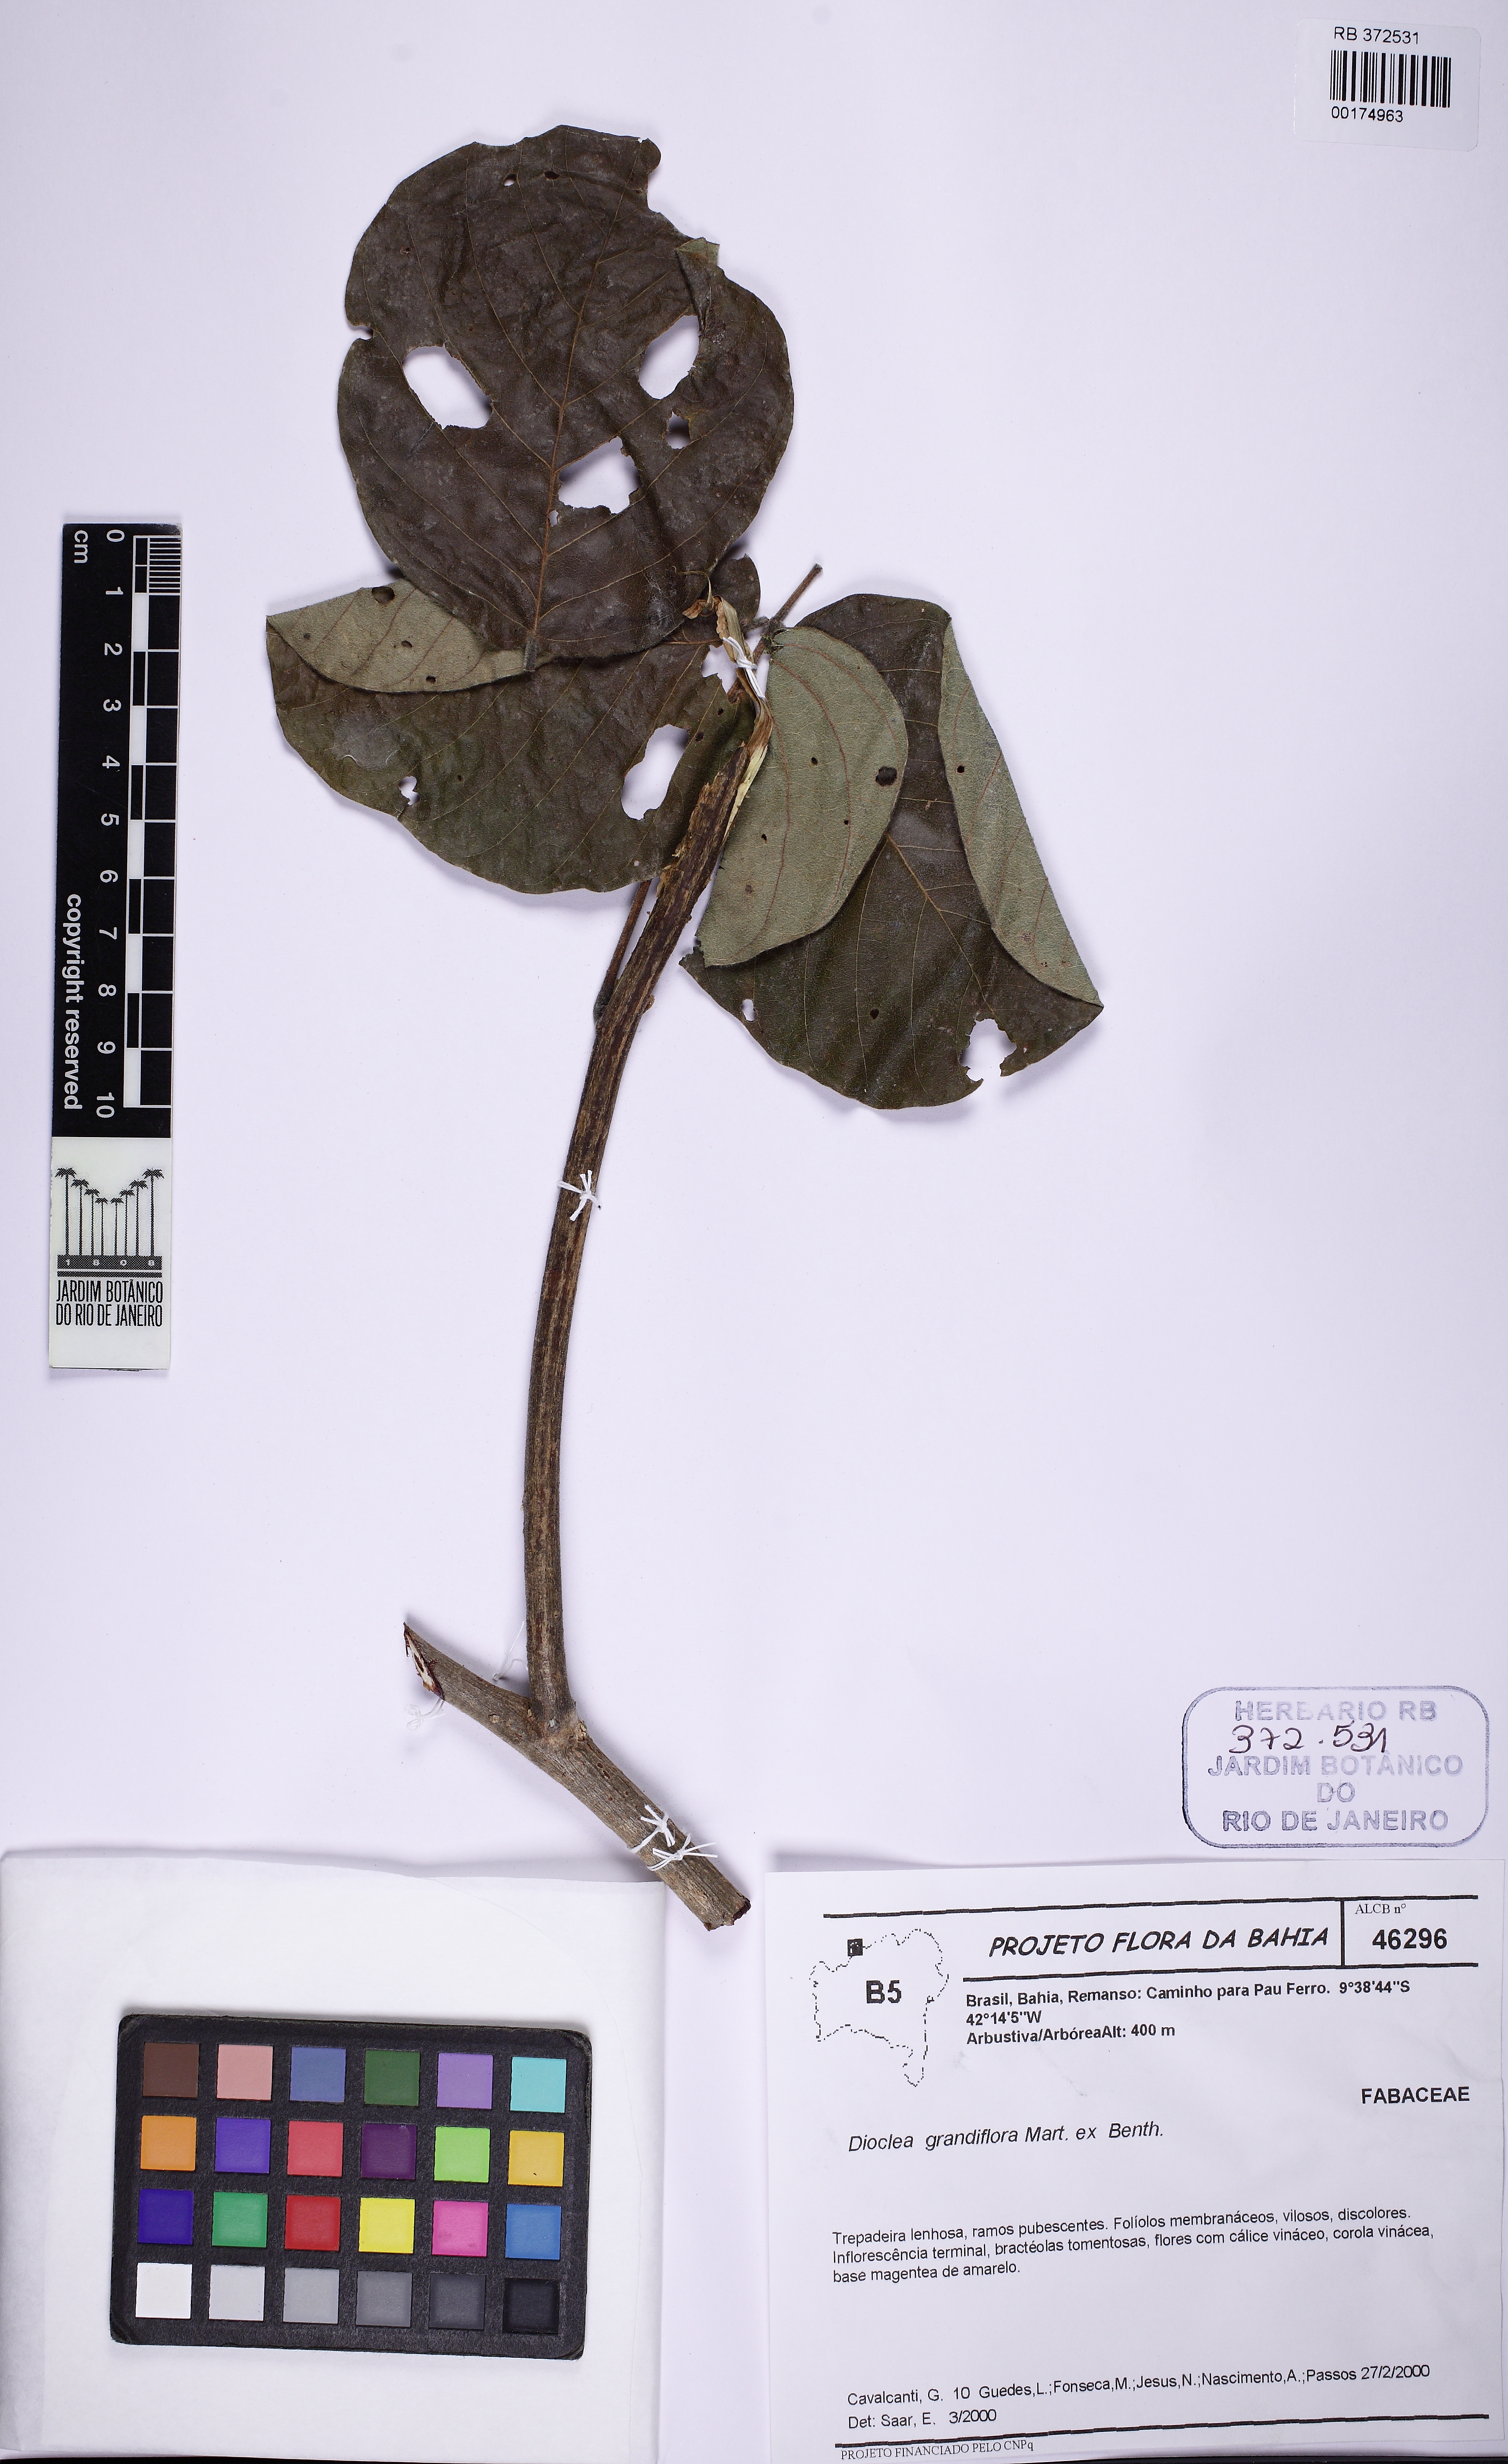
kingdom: Plantae
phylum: Tracheophyta
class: Magnoliopsida
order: Fabales
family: Fabaceae
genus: Macropsychanthus
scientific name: Macropsychanthus grandiflorus
